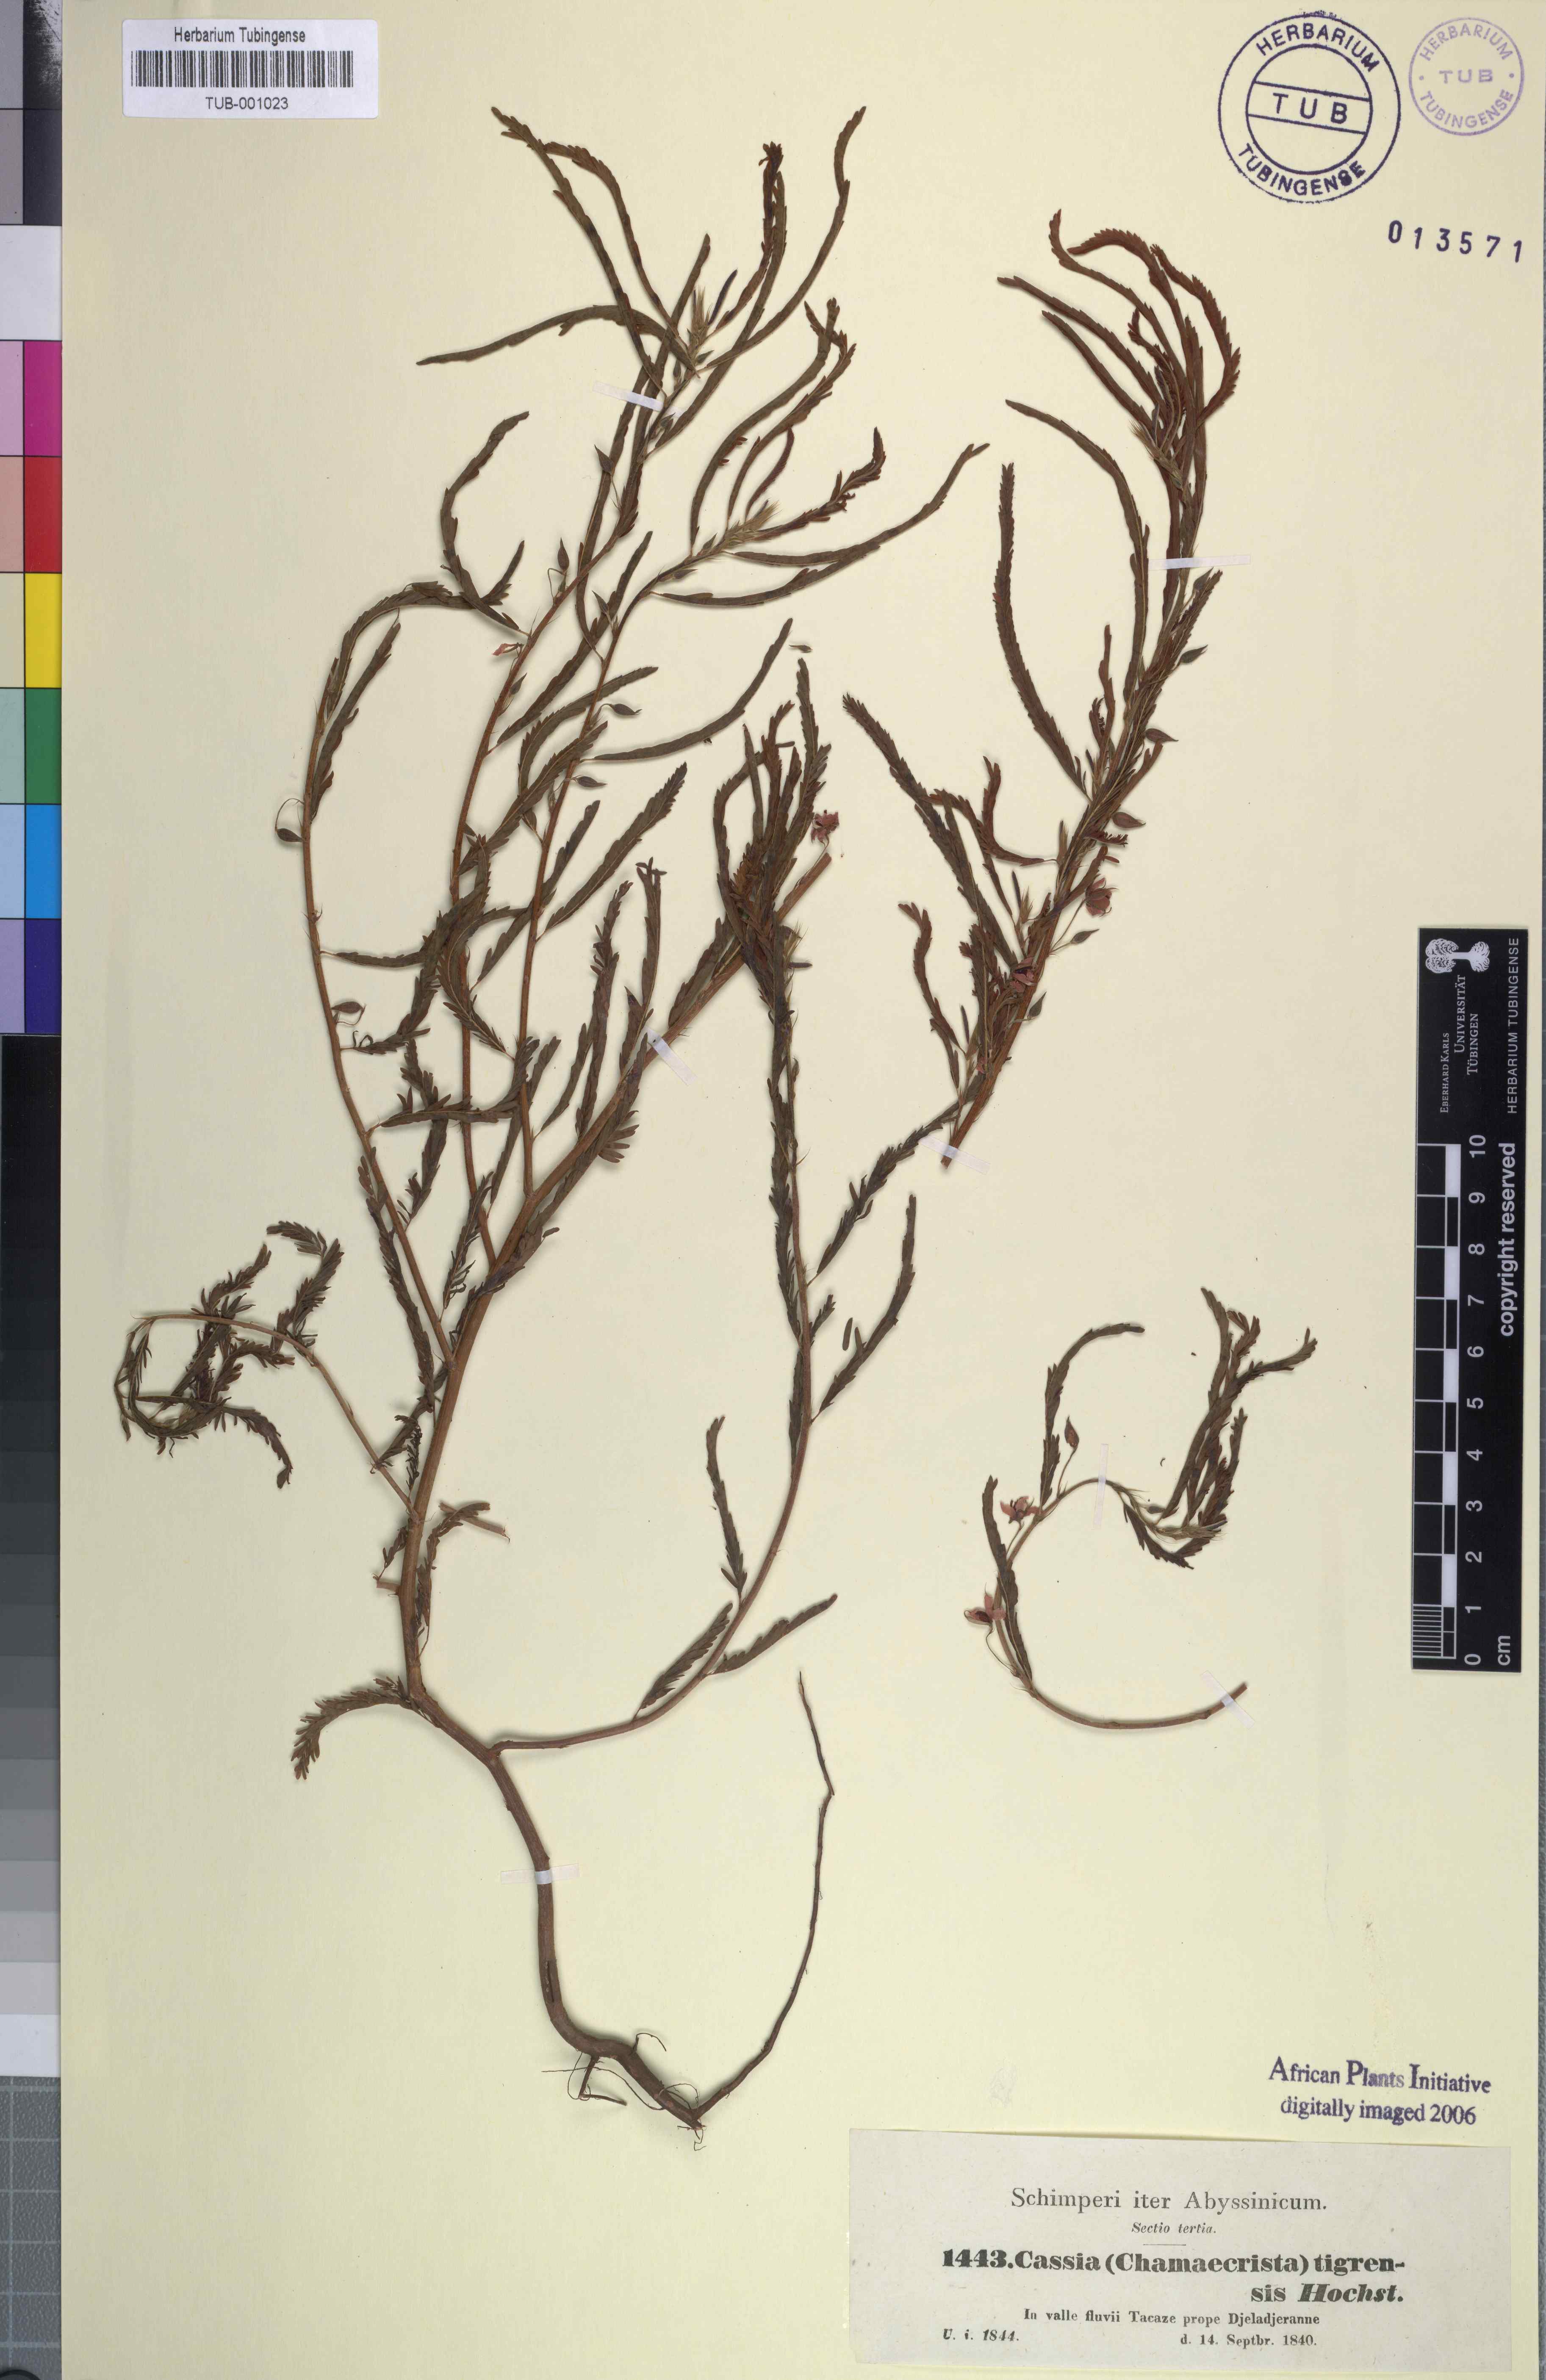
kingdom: Plantae
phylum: Tracheophyta
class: Magnoliopsida
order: Fabales
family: Fabaceae
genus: Cassia
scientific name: Cassia
